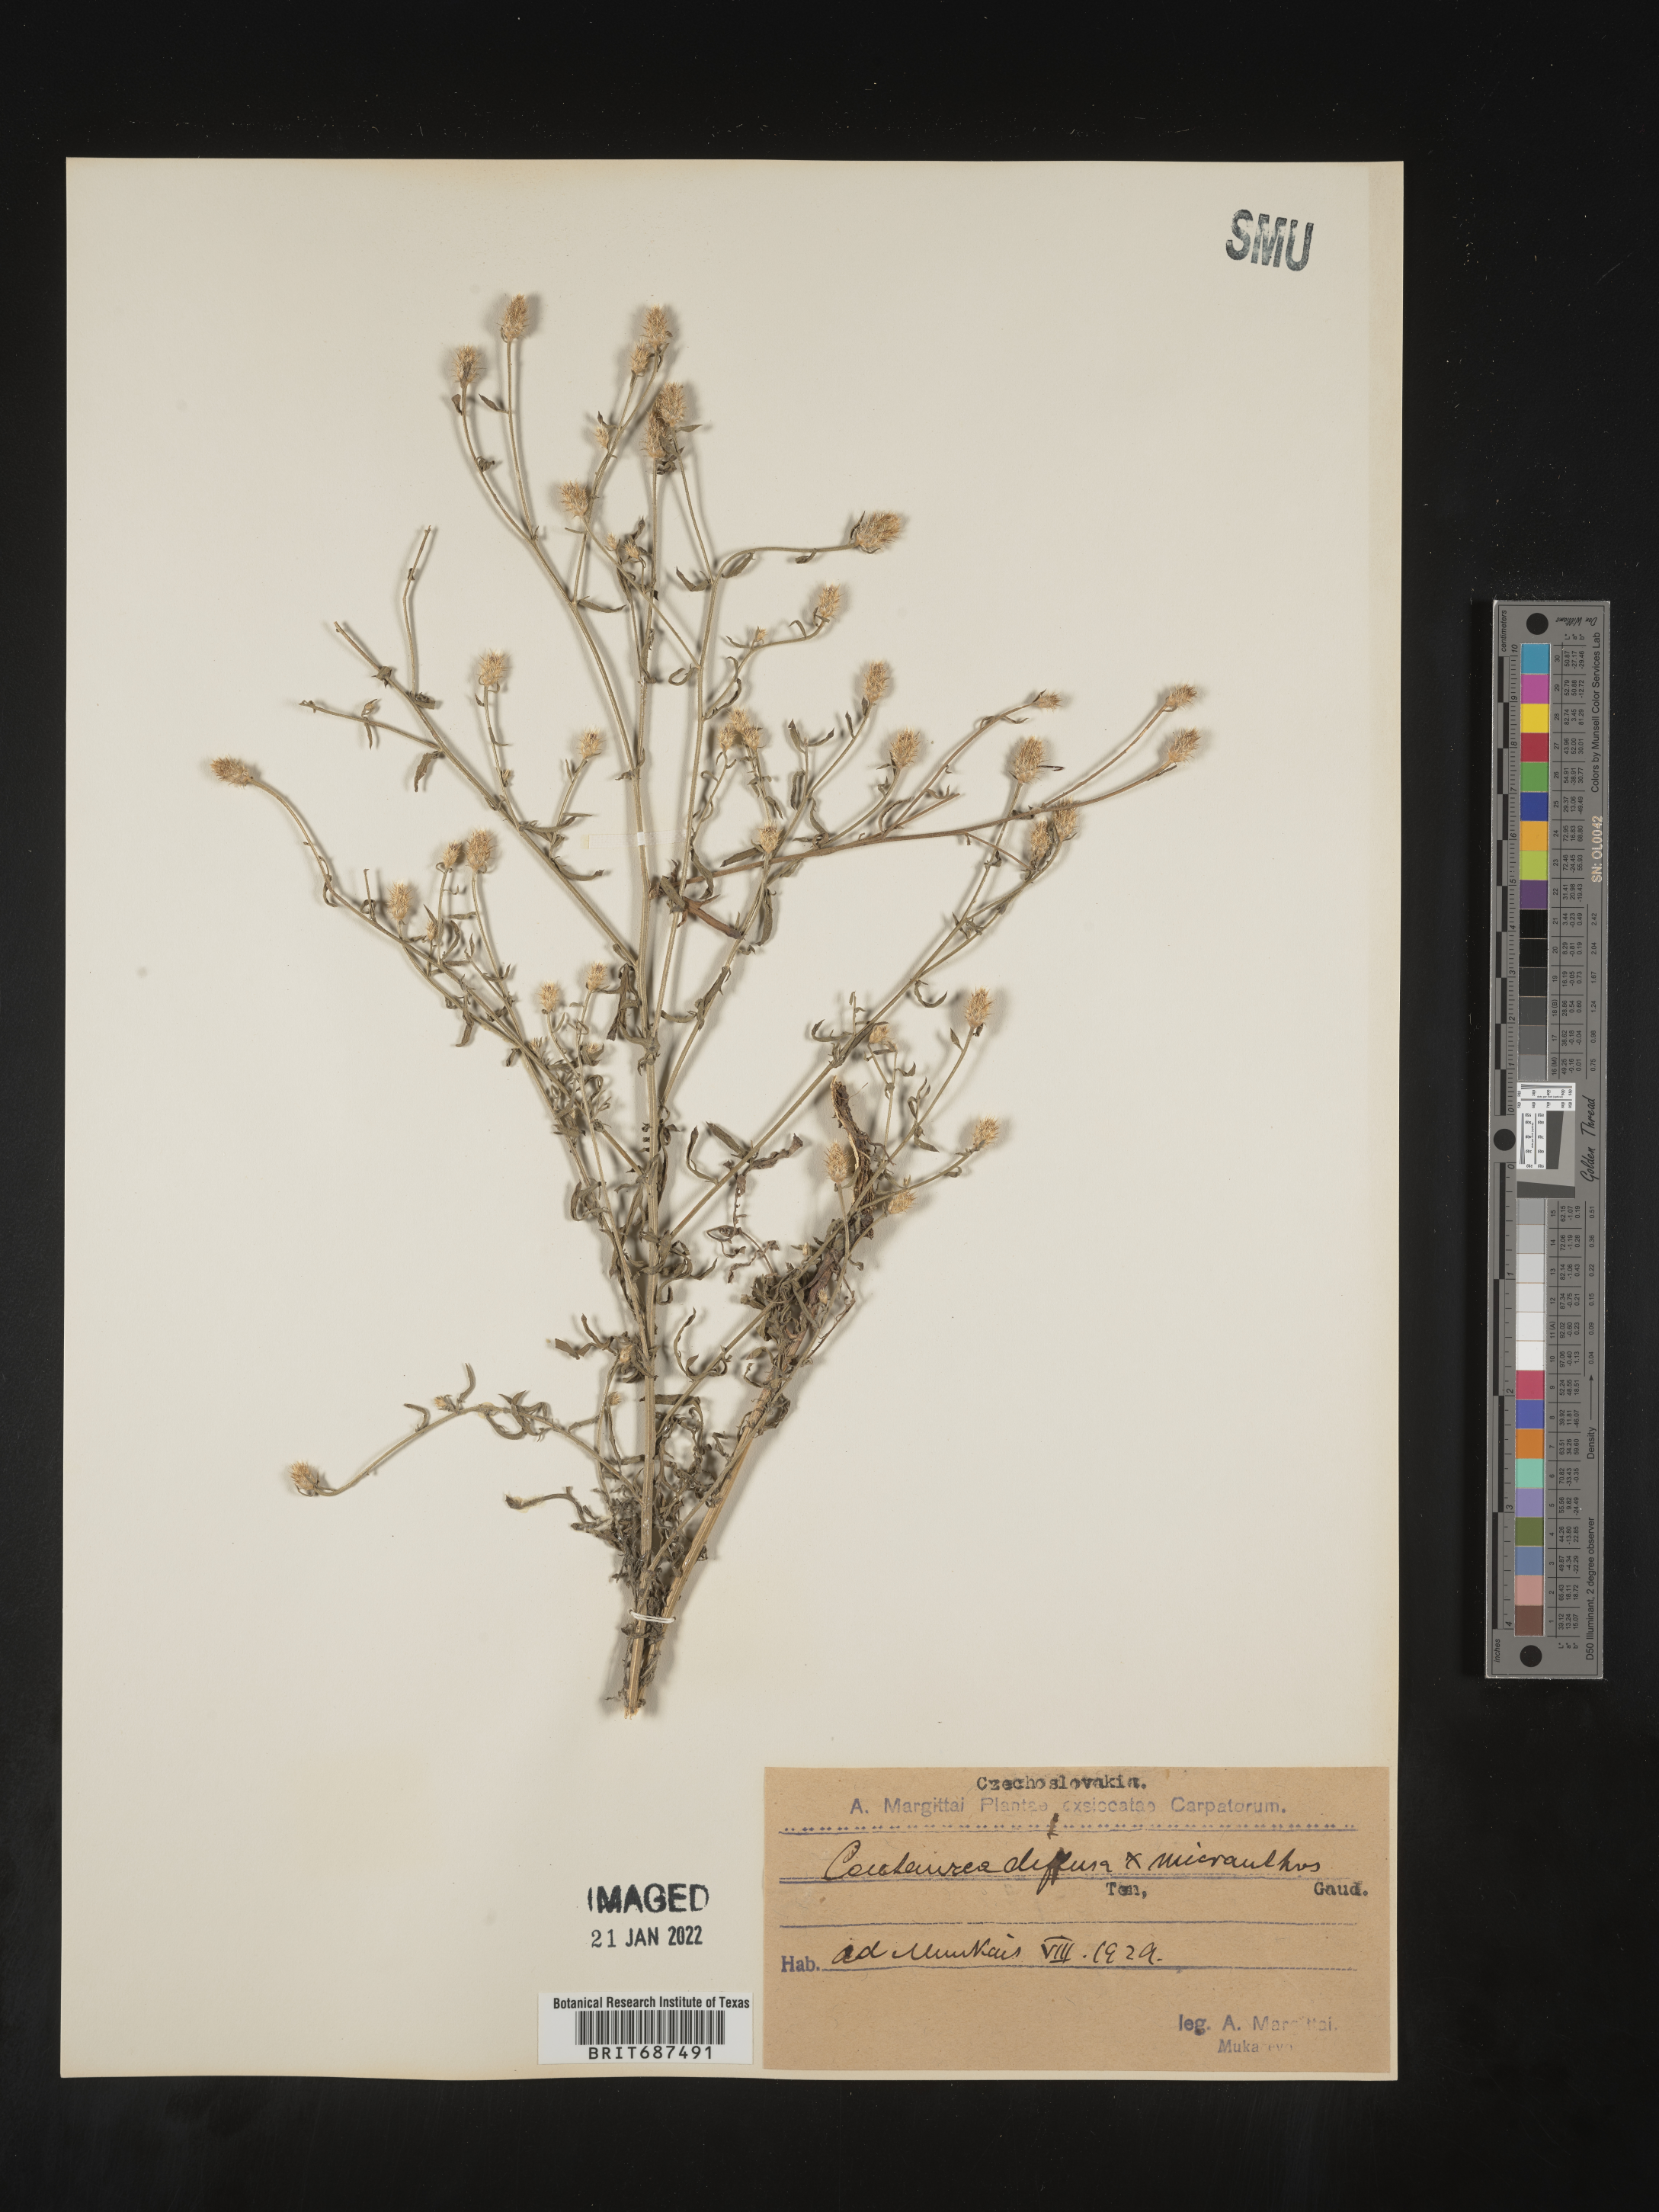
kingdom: Plantae
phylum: Tracheophyta
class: Magnoliopsida
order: Asterales
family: Asteraceae
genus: Centaurea
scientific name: Centaurea
